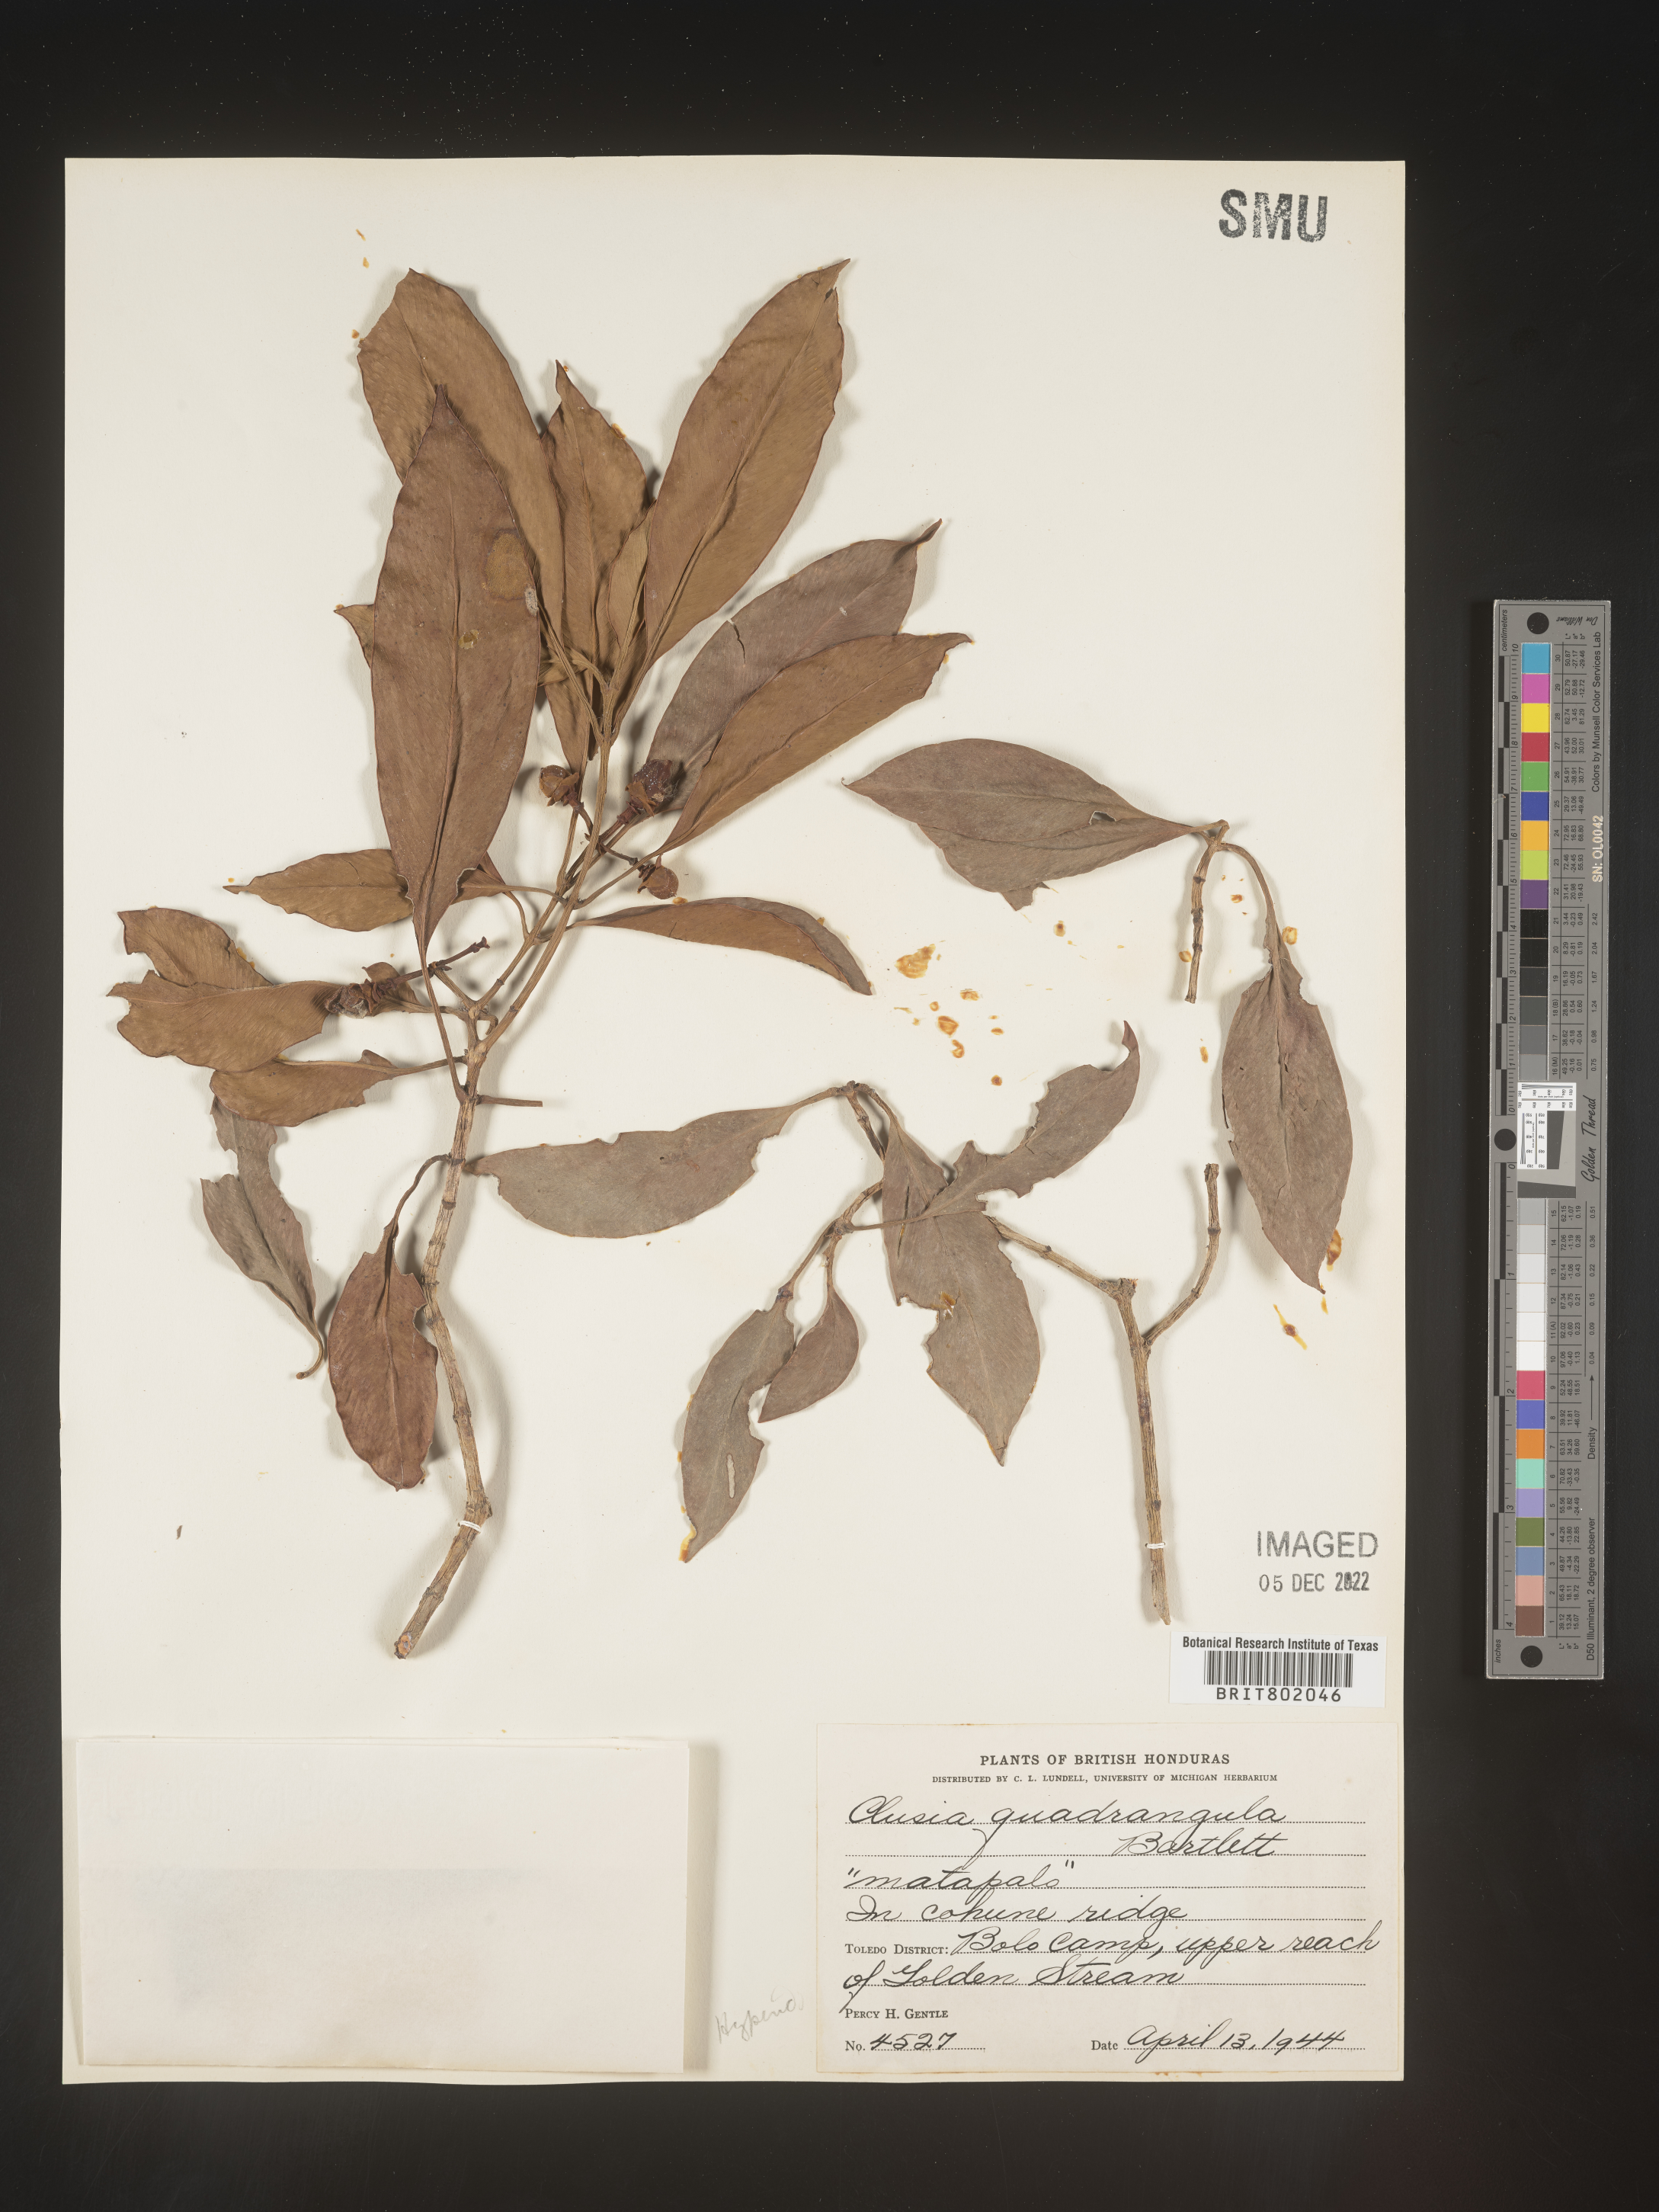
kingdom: Plantae
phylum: Tracheophyta
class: Magnoliopsida
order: Malpighiales
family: Clusiaceae
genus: Clusia
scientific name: Clusia
